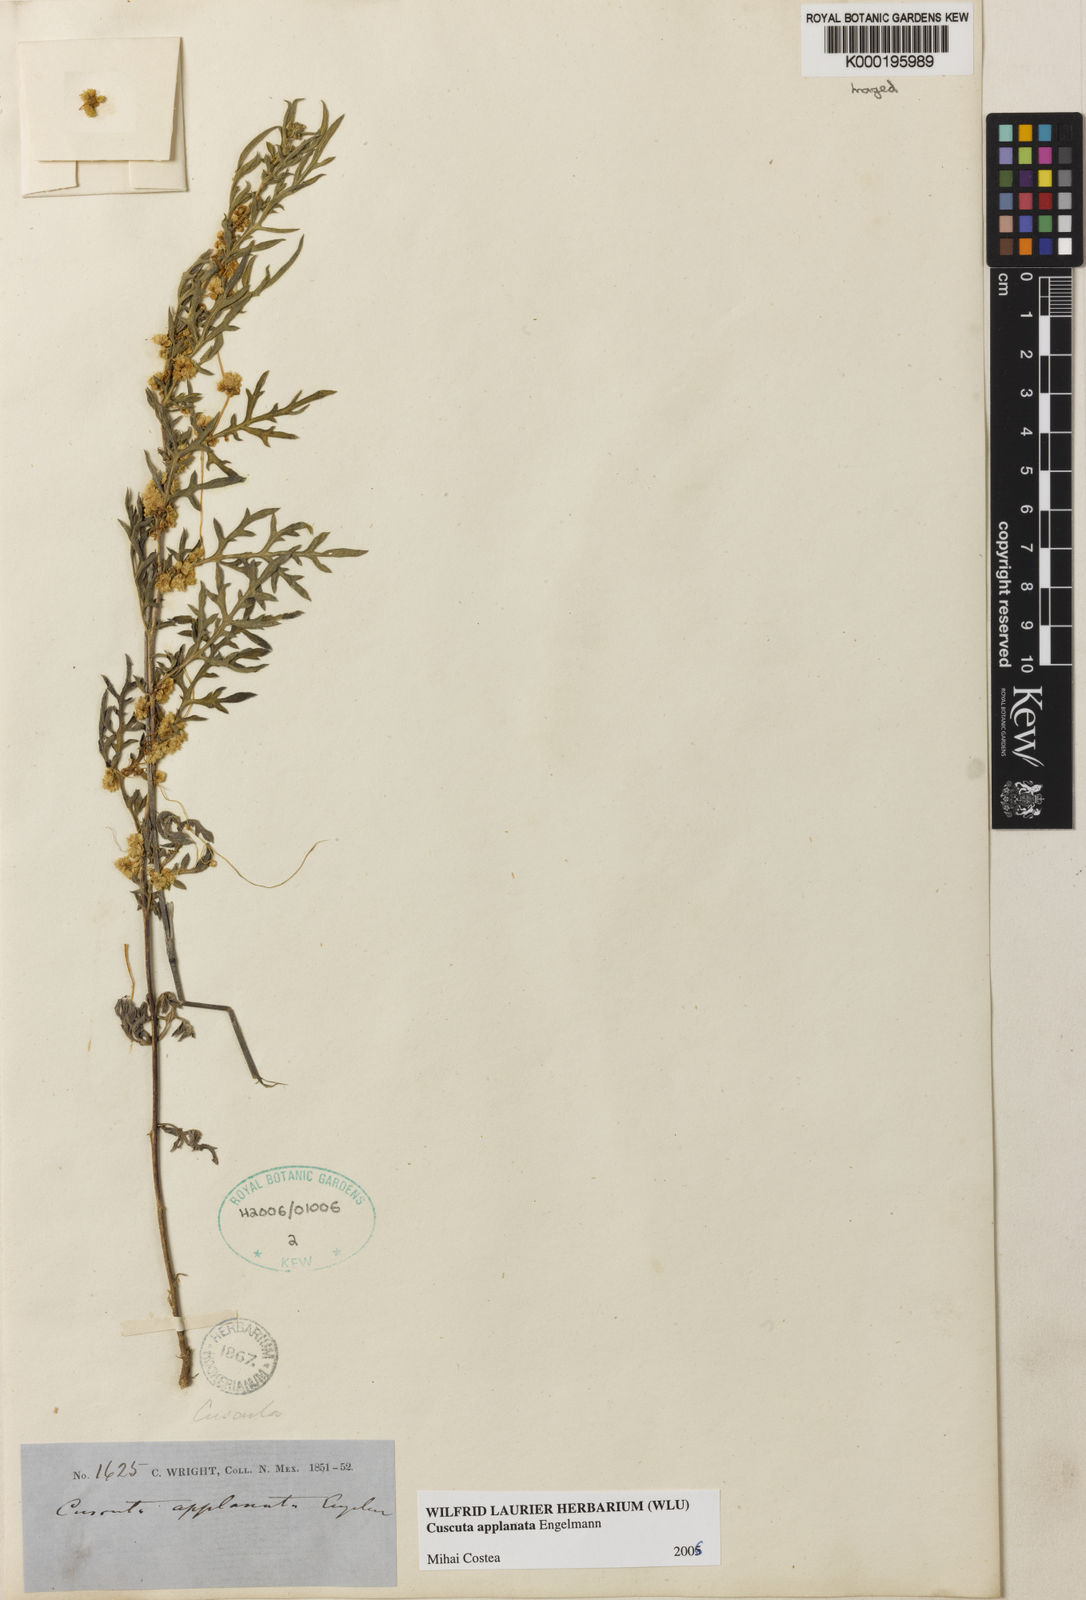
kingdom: Plantae
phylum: Tracheophyta
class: Magnoliopsida
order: Solanales
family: Convolvulaceae
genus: Cuscuta
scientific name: Cuscuta applanata
